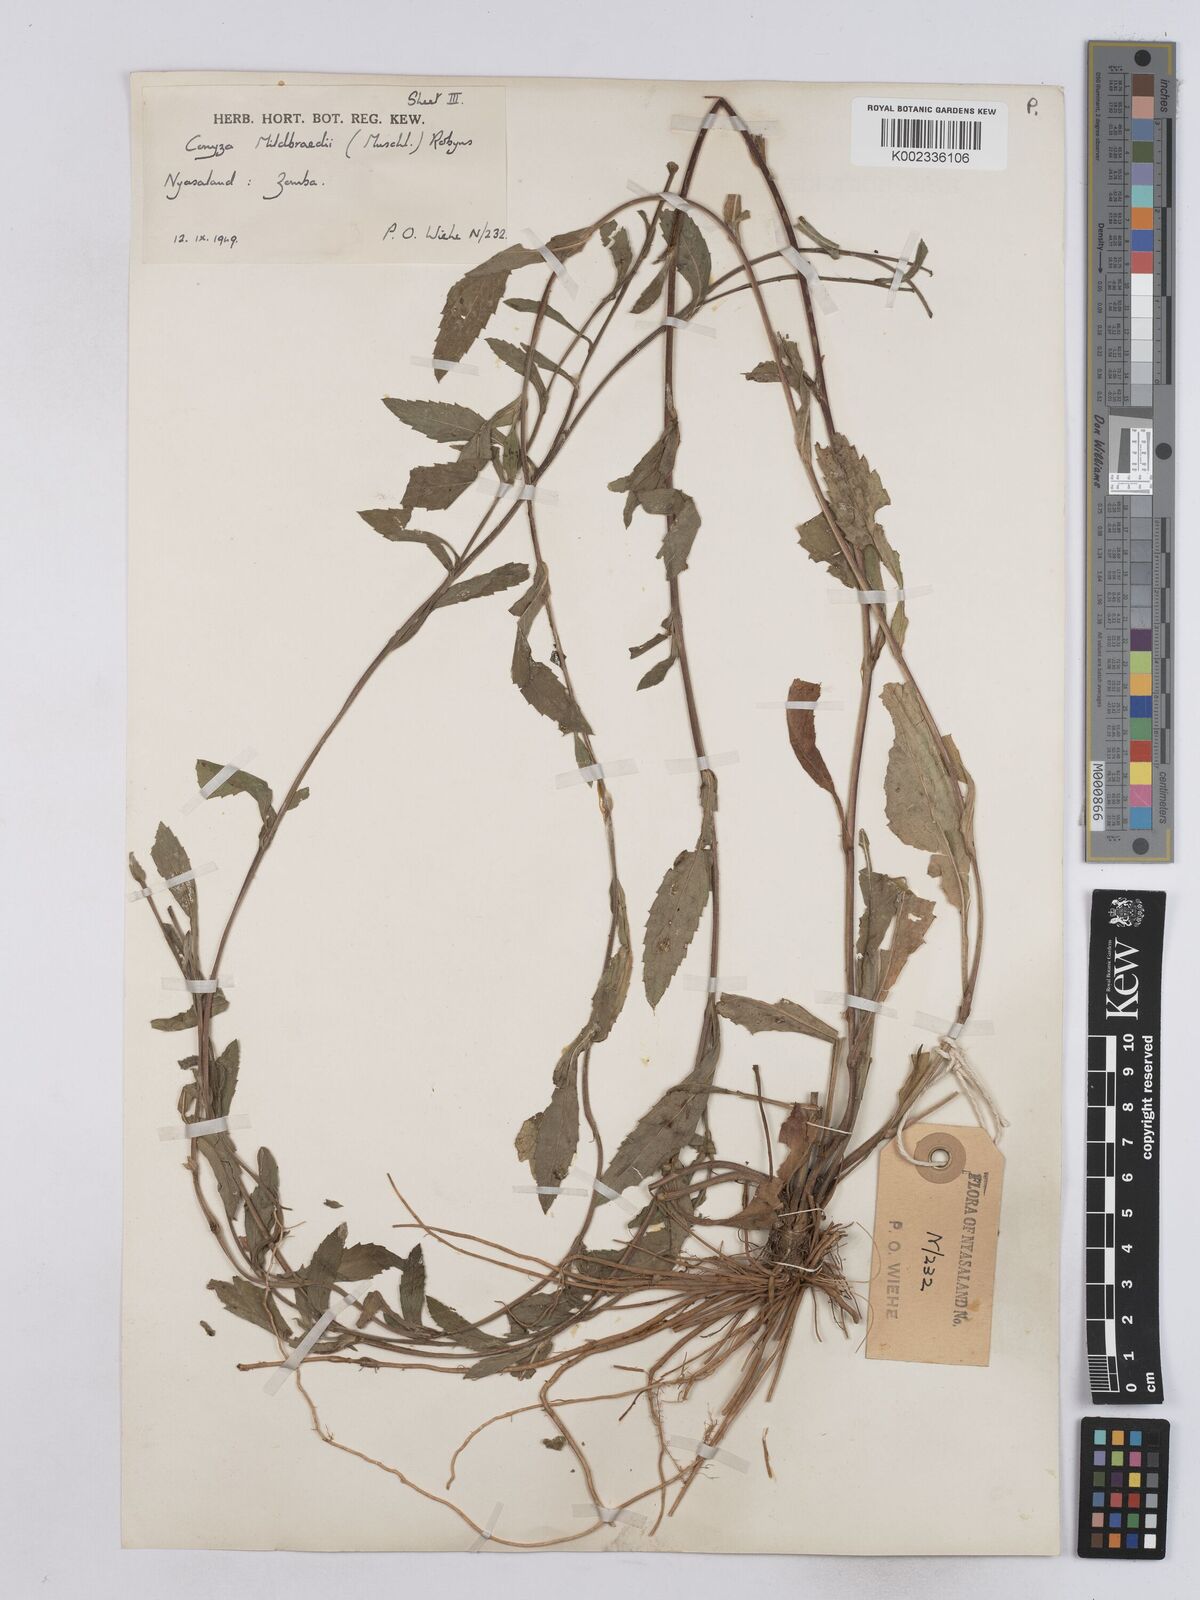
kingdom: Plantae
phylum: Tracheophyta
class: Magnoliopsida
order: Asterales
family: Asteraceae
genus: Conyza
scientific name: Conyza limosa
